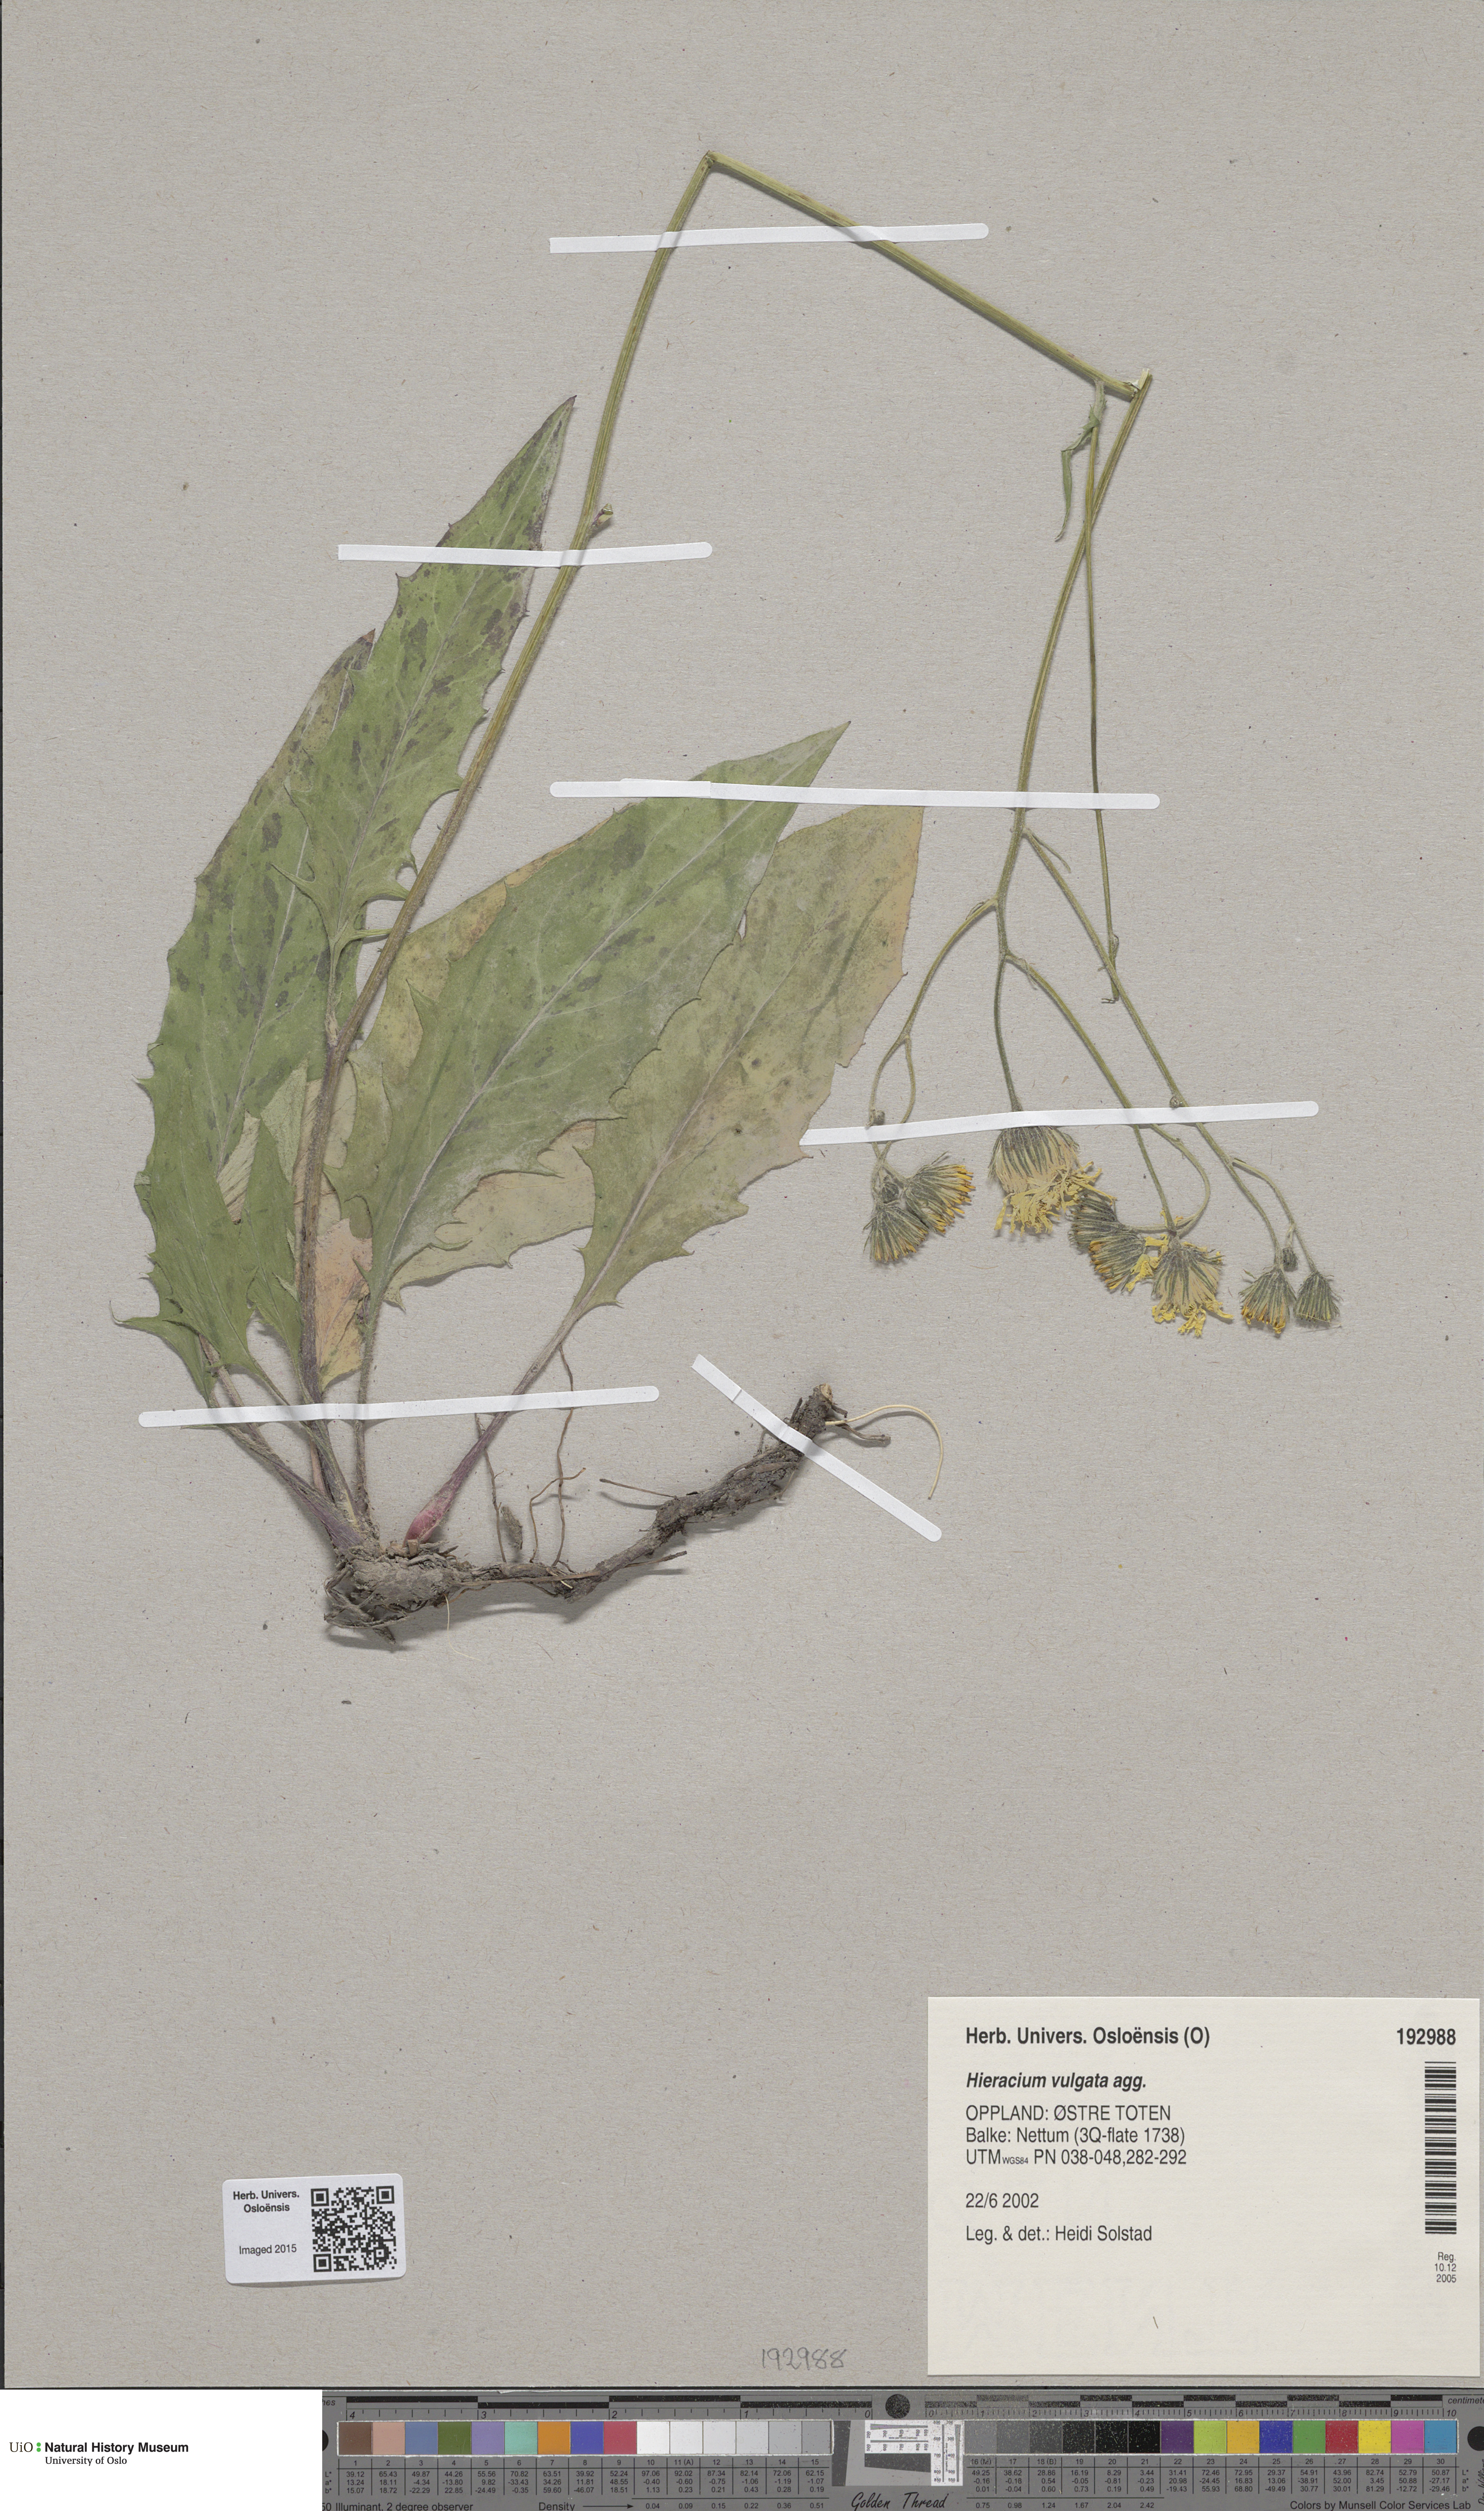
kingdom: Plantae
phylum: Tracheophyta
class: Magnoliopsida
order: Asterales
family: Asteraceae
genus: Hieracium
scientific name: Hieracium vulgatum
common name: Common hawkweed
